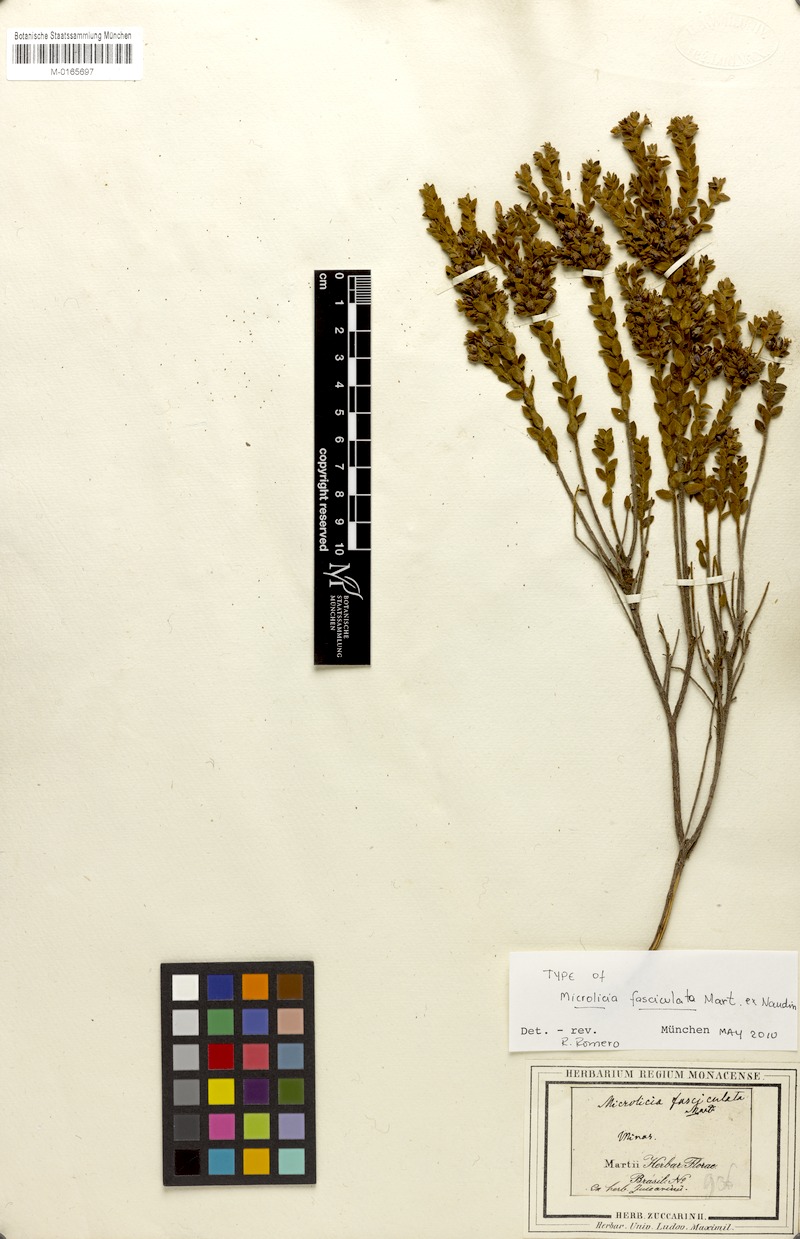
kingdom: Plantae
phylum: Tracheophyta
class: Magnoliopsida
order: Myrtales
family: Melastomataceae
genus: Microlicia
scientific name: Microlicia fasciculata
